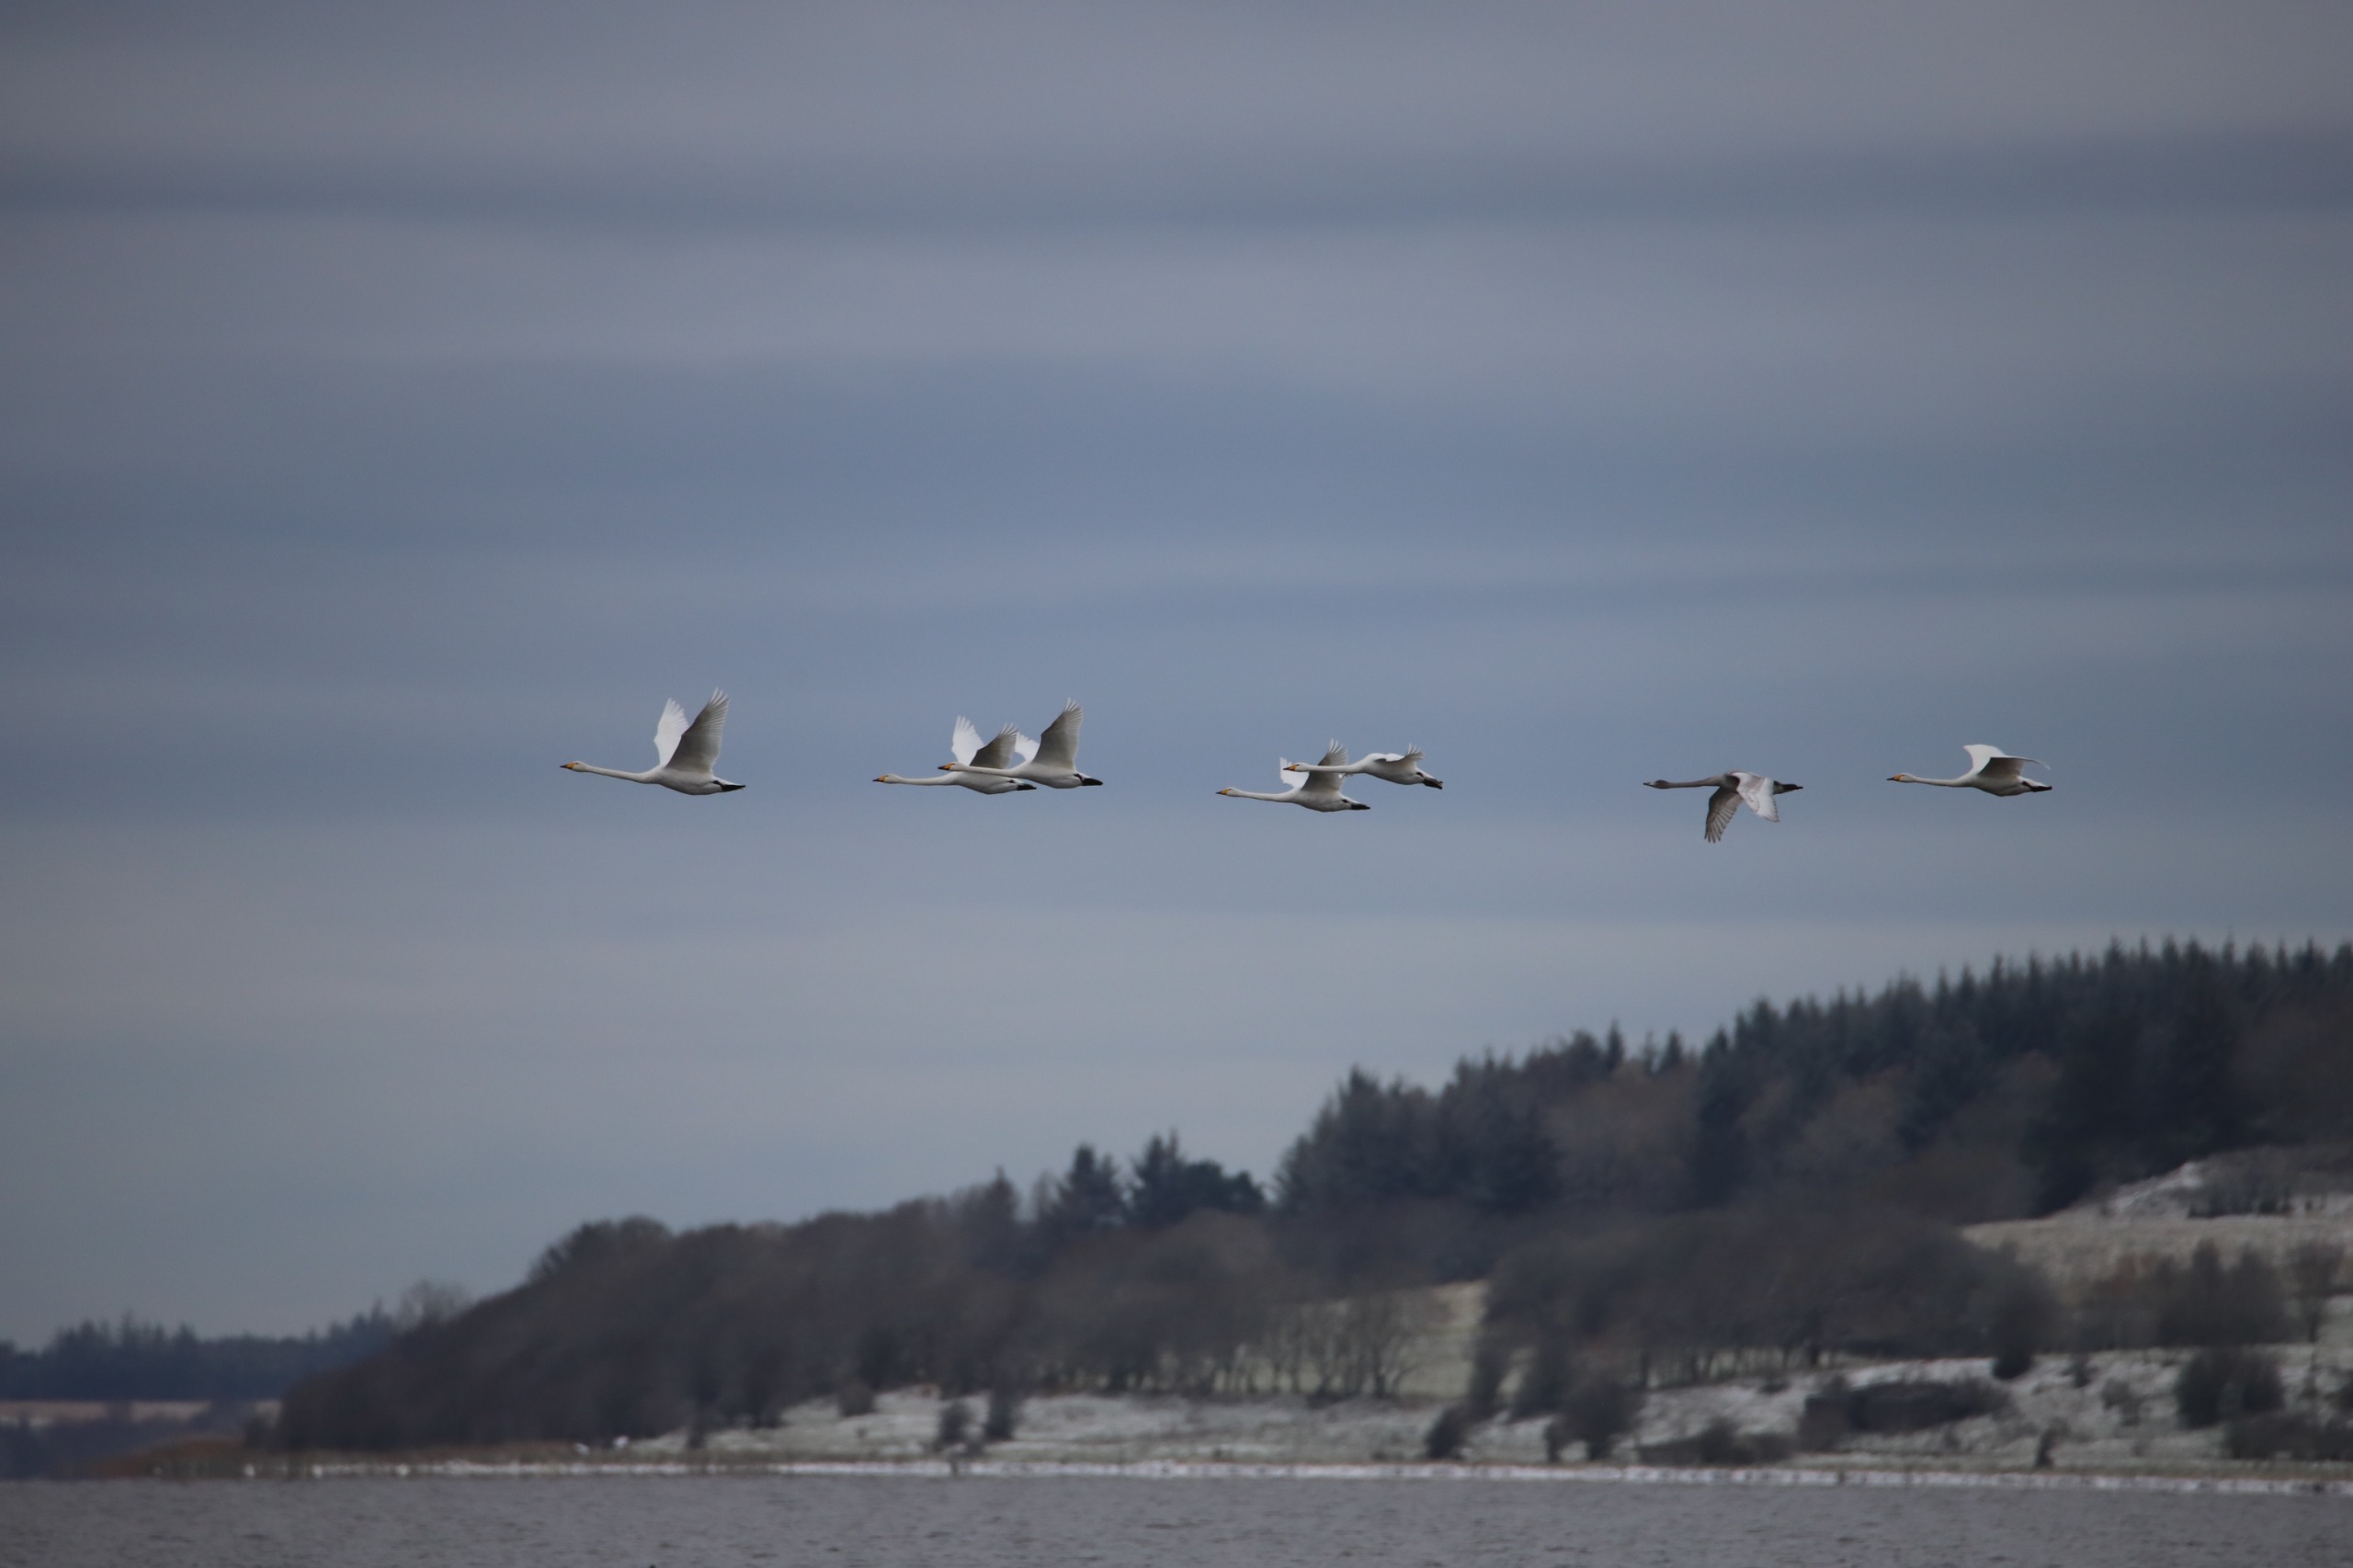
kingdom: Animalia
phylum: Chordata
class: Aves
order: Anseriformes
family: Anatidae
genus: Cygnus
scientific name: Cygnus cygnus
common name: Sangsvane
